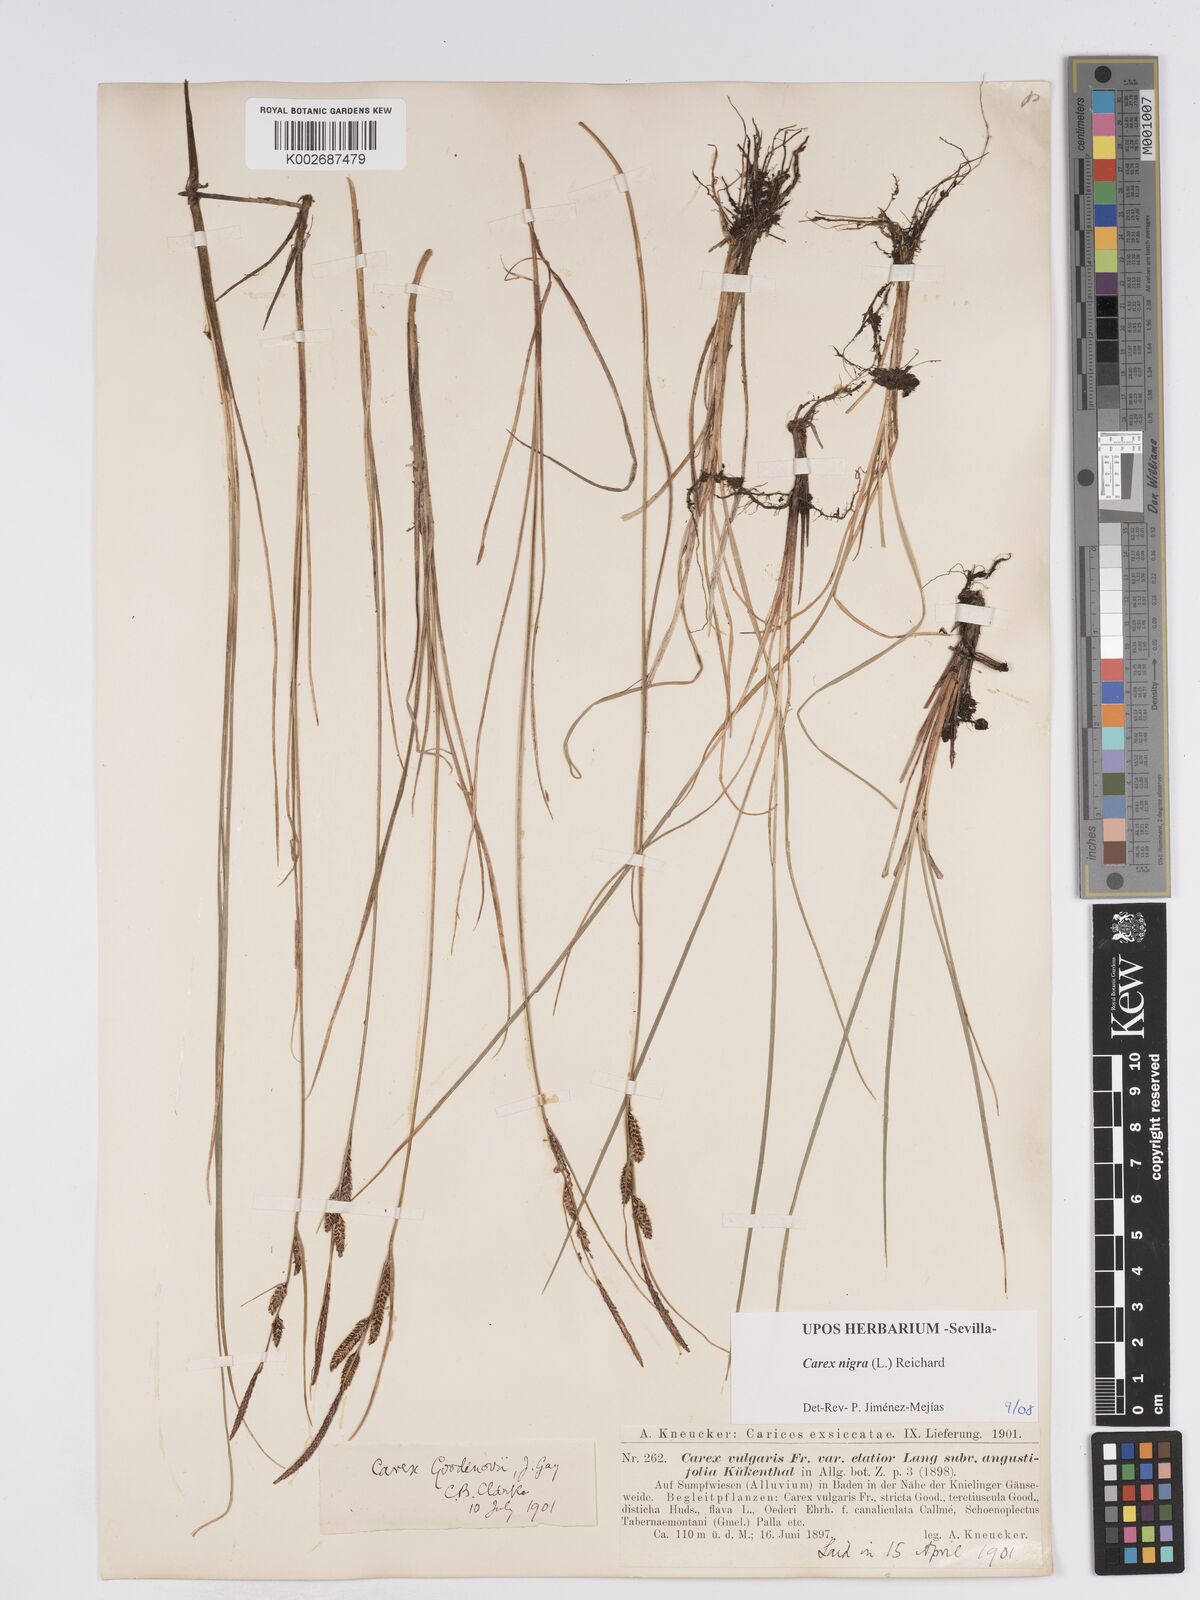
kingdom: Plantae
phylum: Tracheophyta
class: Liliopsida
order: Poales
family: Cyperaceae
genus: Carex
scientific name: Carex nigra
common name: Common sedge
